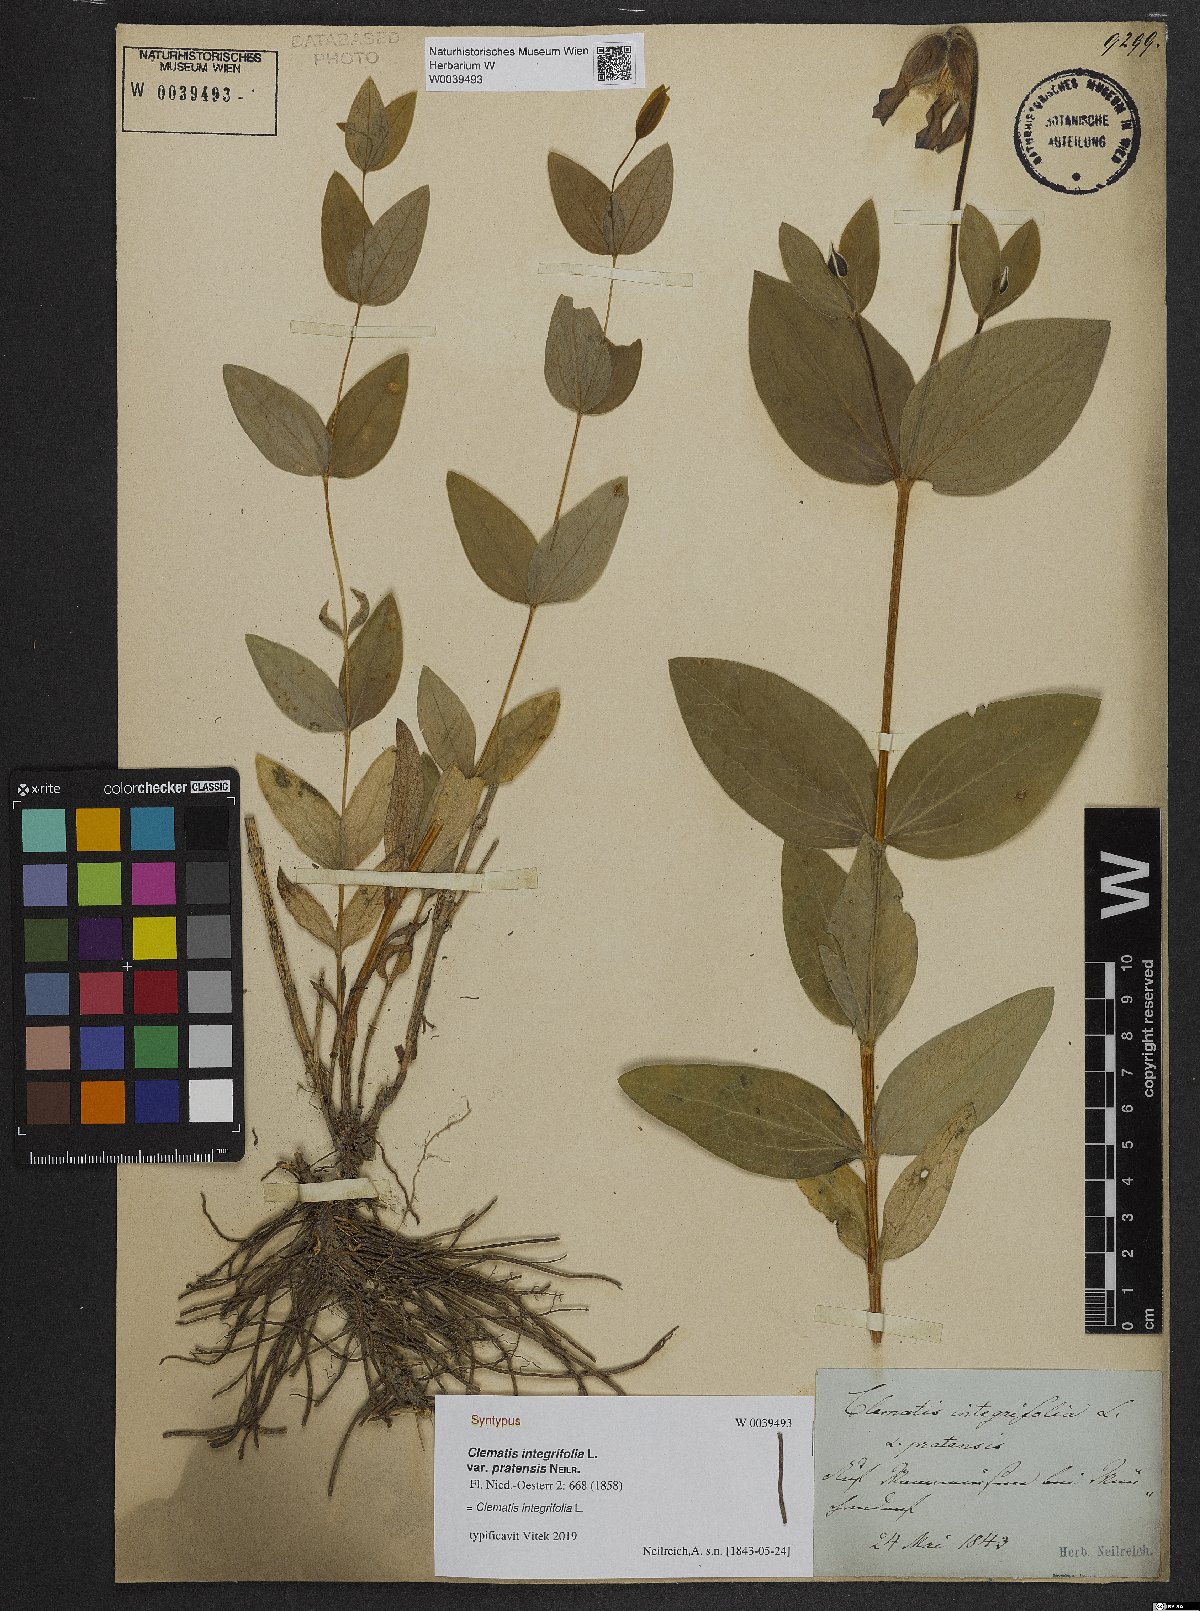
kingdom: Plantae
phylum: Tracheophyta
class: Magnoliopsida
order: Ranunculales
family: Ranunculaceae
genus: Clematis
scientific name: Clematis integrifolia
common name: Solitary clematis
